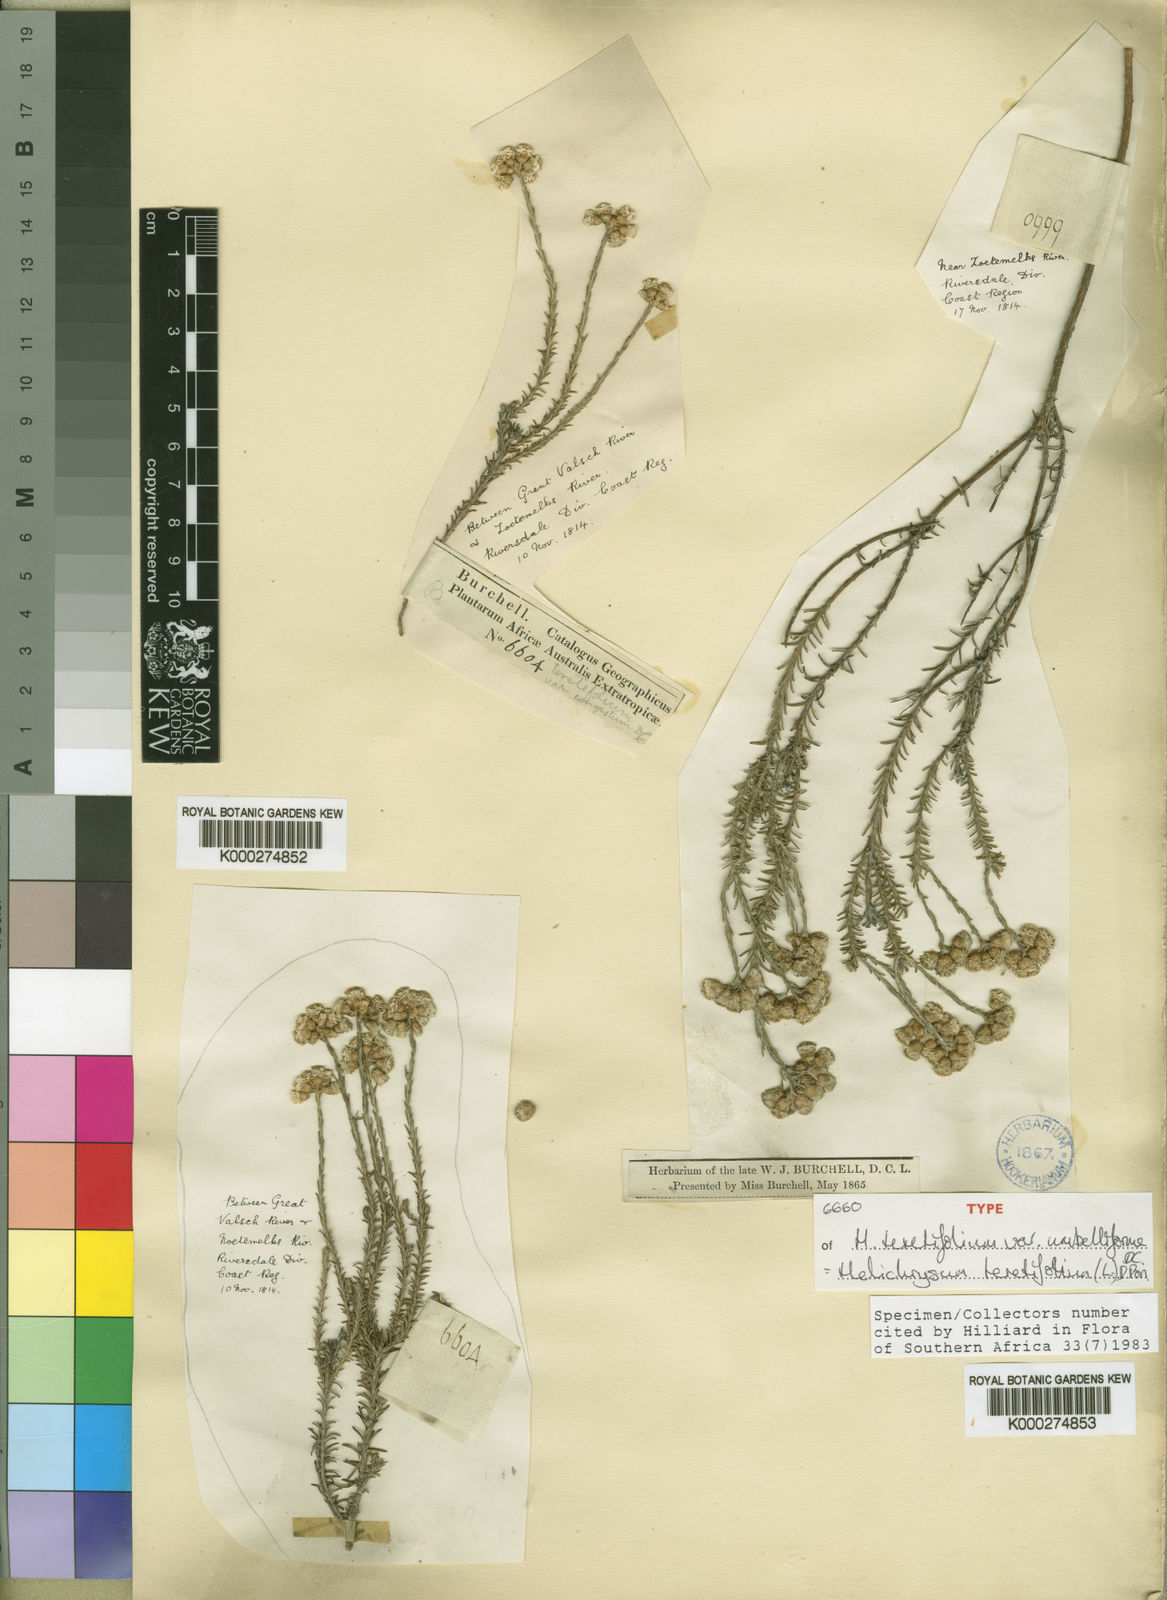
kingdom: Plantae
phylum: Tracheophyta
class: Magnoliopsida
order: Asterales
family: Asteraceae
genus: Helichrysum
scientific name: Helichrysum
